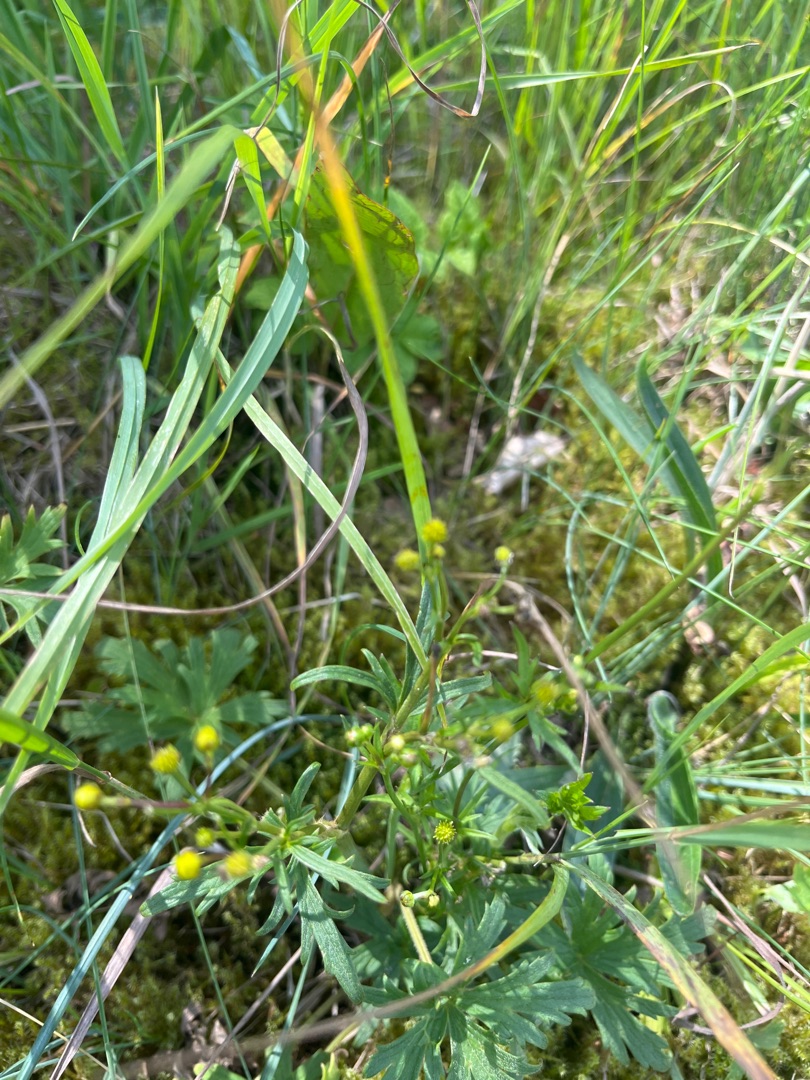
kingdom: Plantae
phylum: Tracheophyta
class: Magnoliopsida
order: Ranunculales
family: Ranunculaceae
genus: Ranunculus
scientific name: Ranunculus acris
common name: Bidende ranunkel
